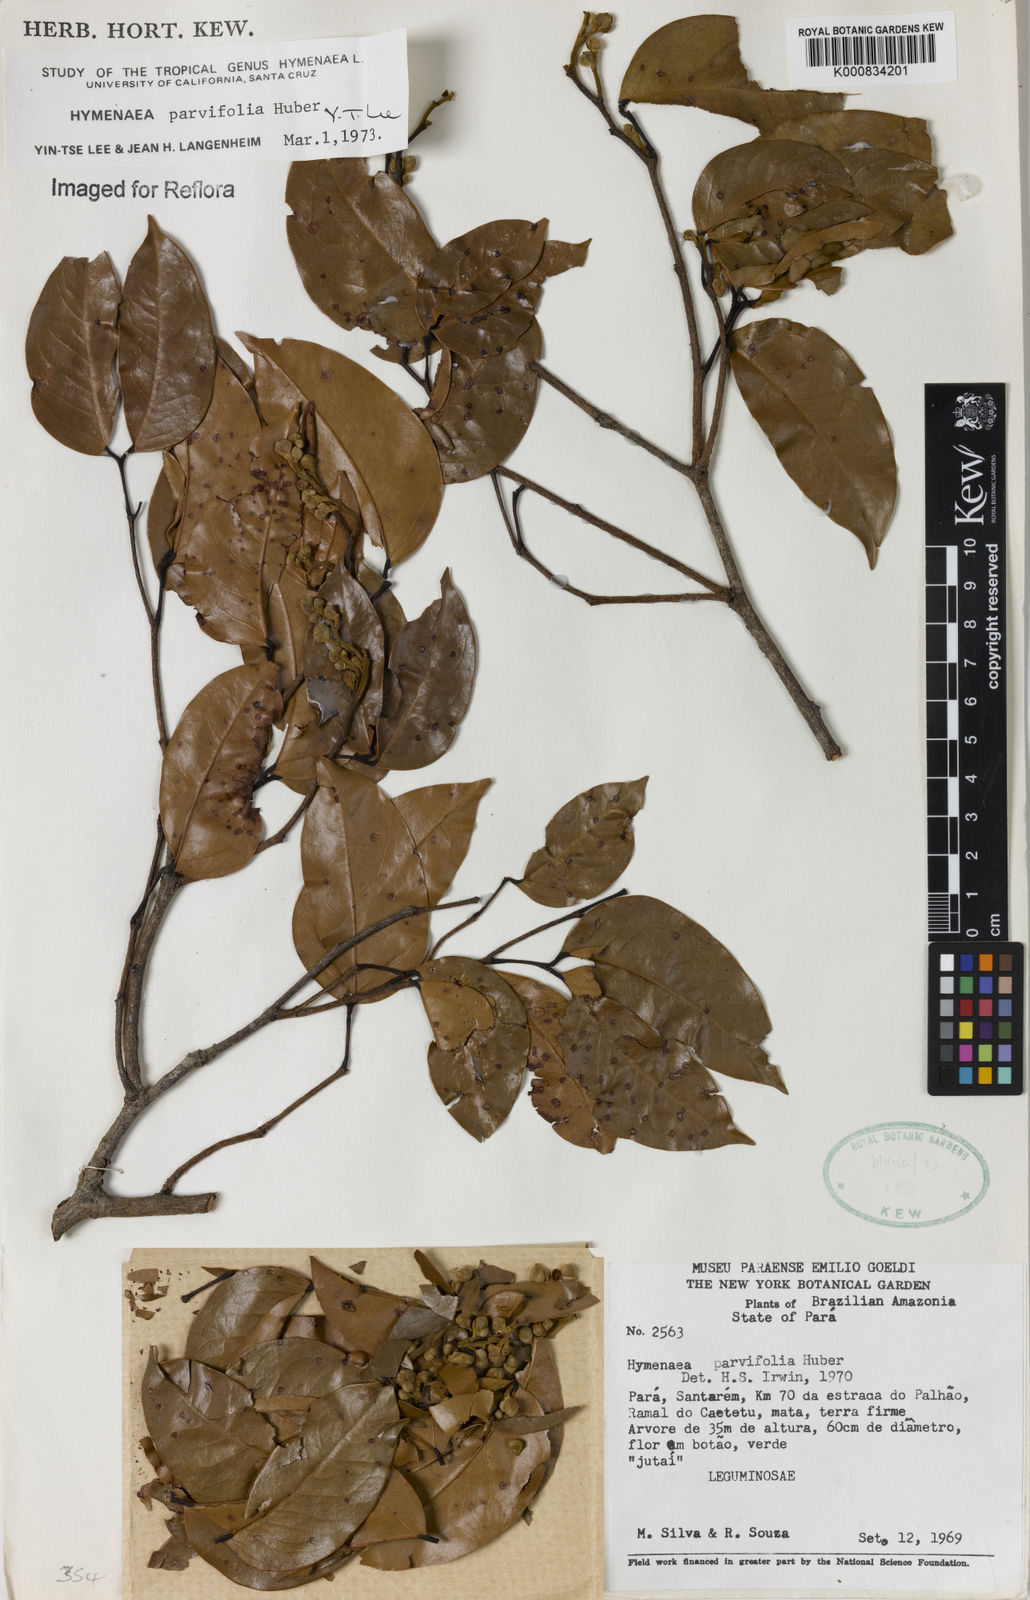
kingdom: Plantae
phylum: Tracheophyta
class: Magnoliopsida
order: Fabales
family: Fabaceae
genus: Hymenaea
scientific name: Hymenaea parvifolia
